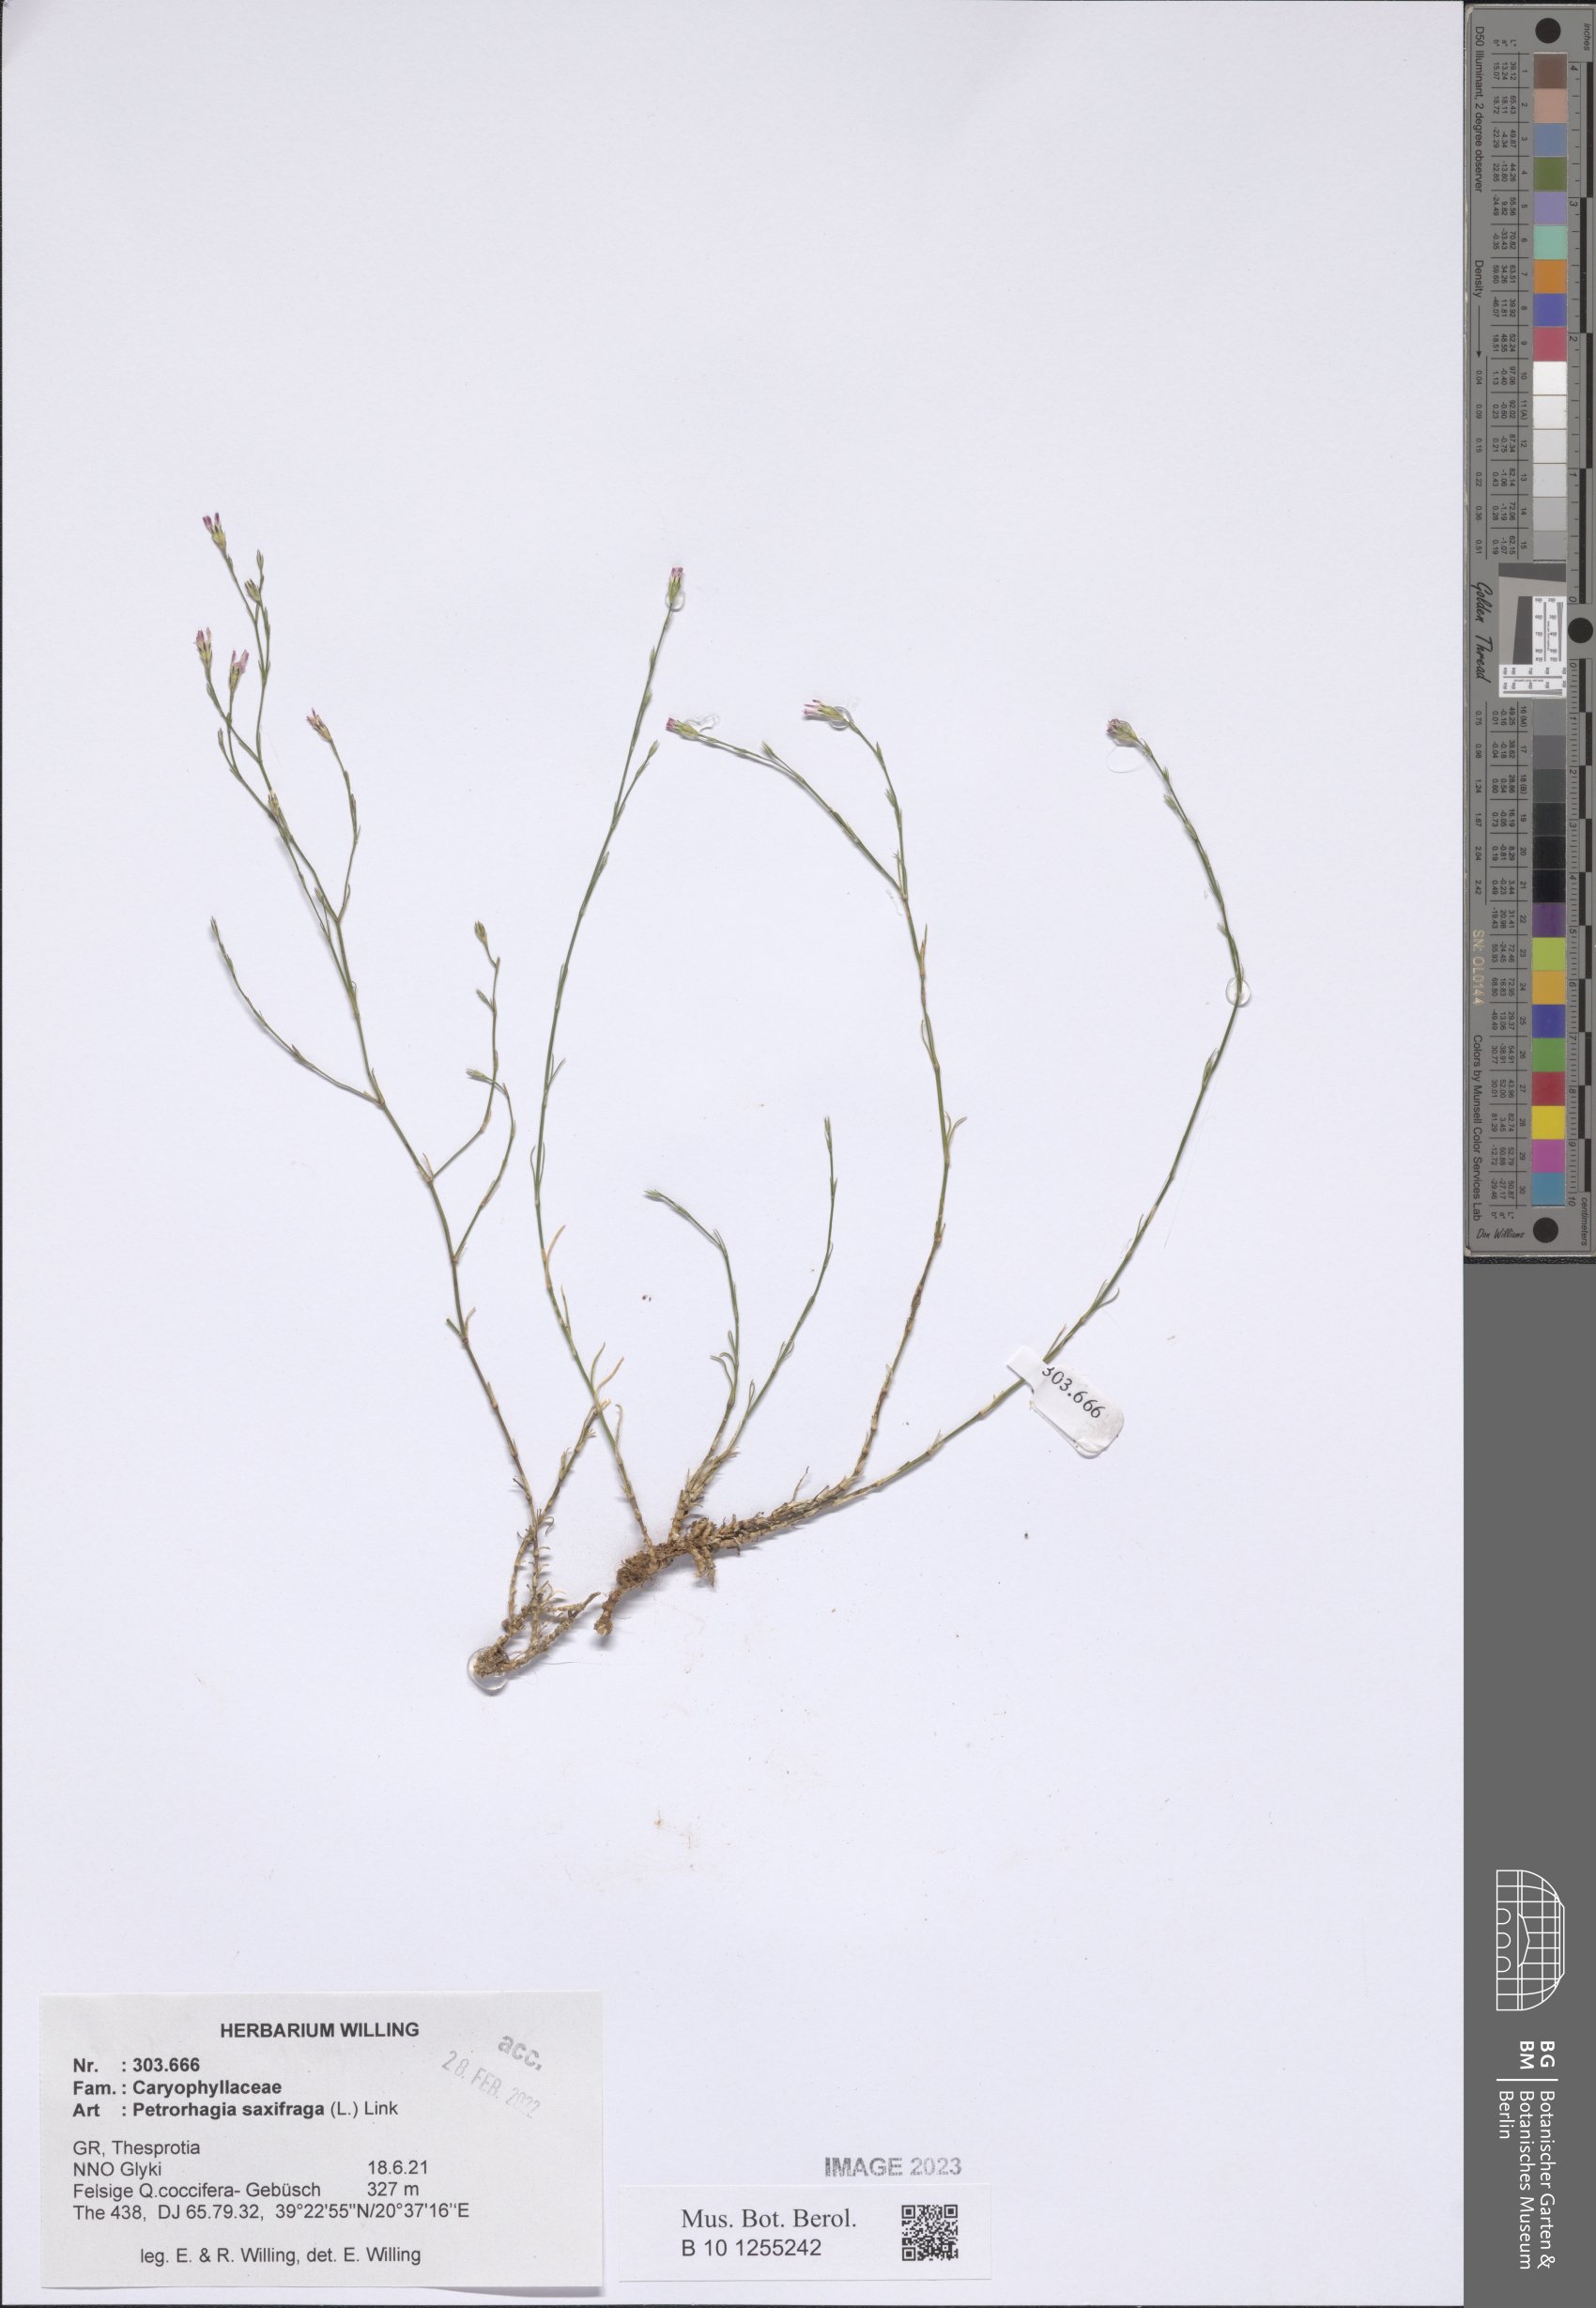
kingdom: Plantae
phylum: Tracheophyta
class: Magnoliopsida
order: Caryophyllales
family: Caryophyllaceae
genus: Petrorhagia
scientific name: Petrorhagia saxifraga
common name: Tunicflower
